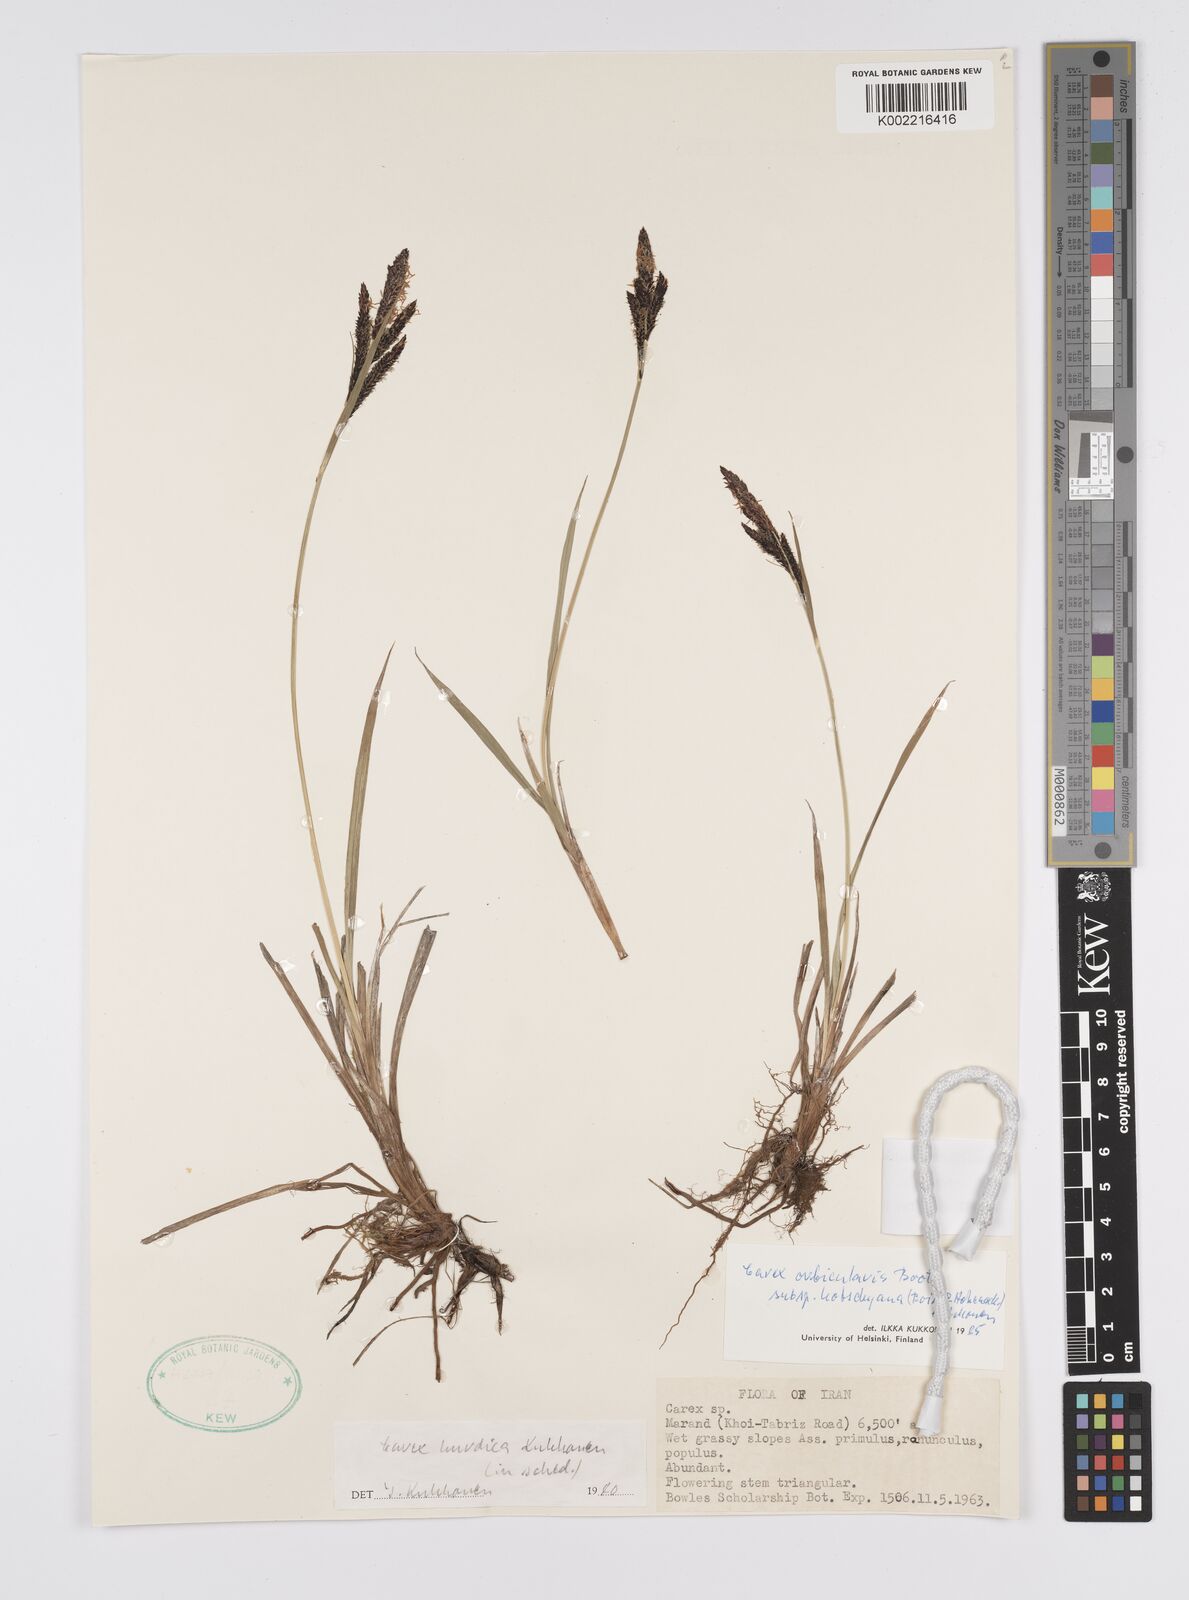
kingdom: Plantae
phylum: Tracheophyta
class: Liliopsida
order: Poales
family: Cyperaceae
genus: Carex
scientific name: Carex orbicularis
